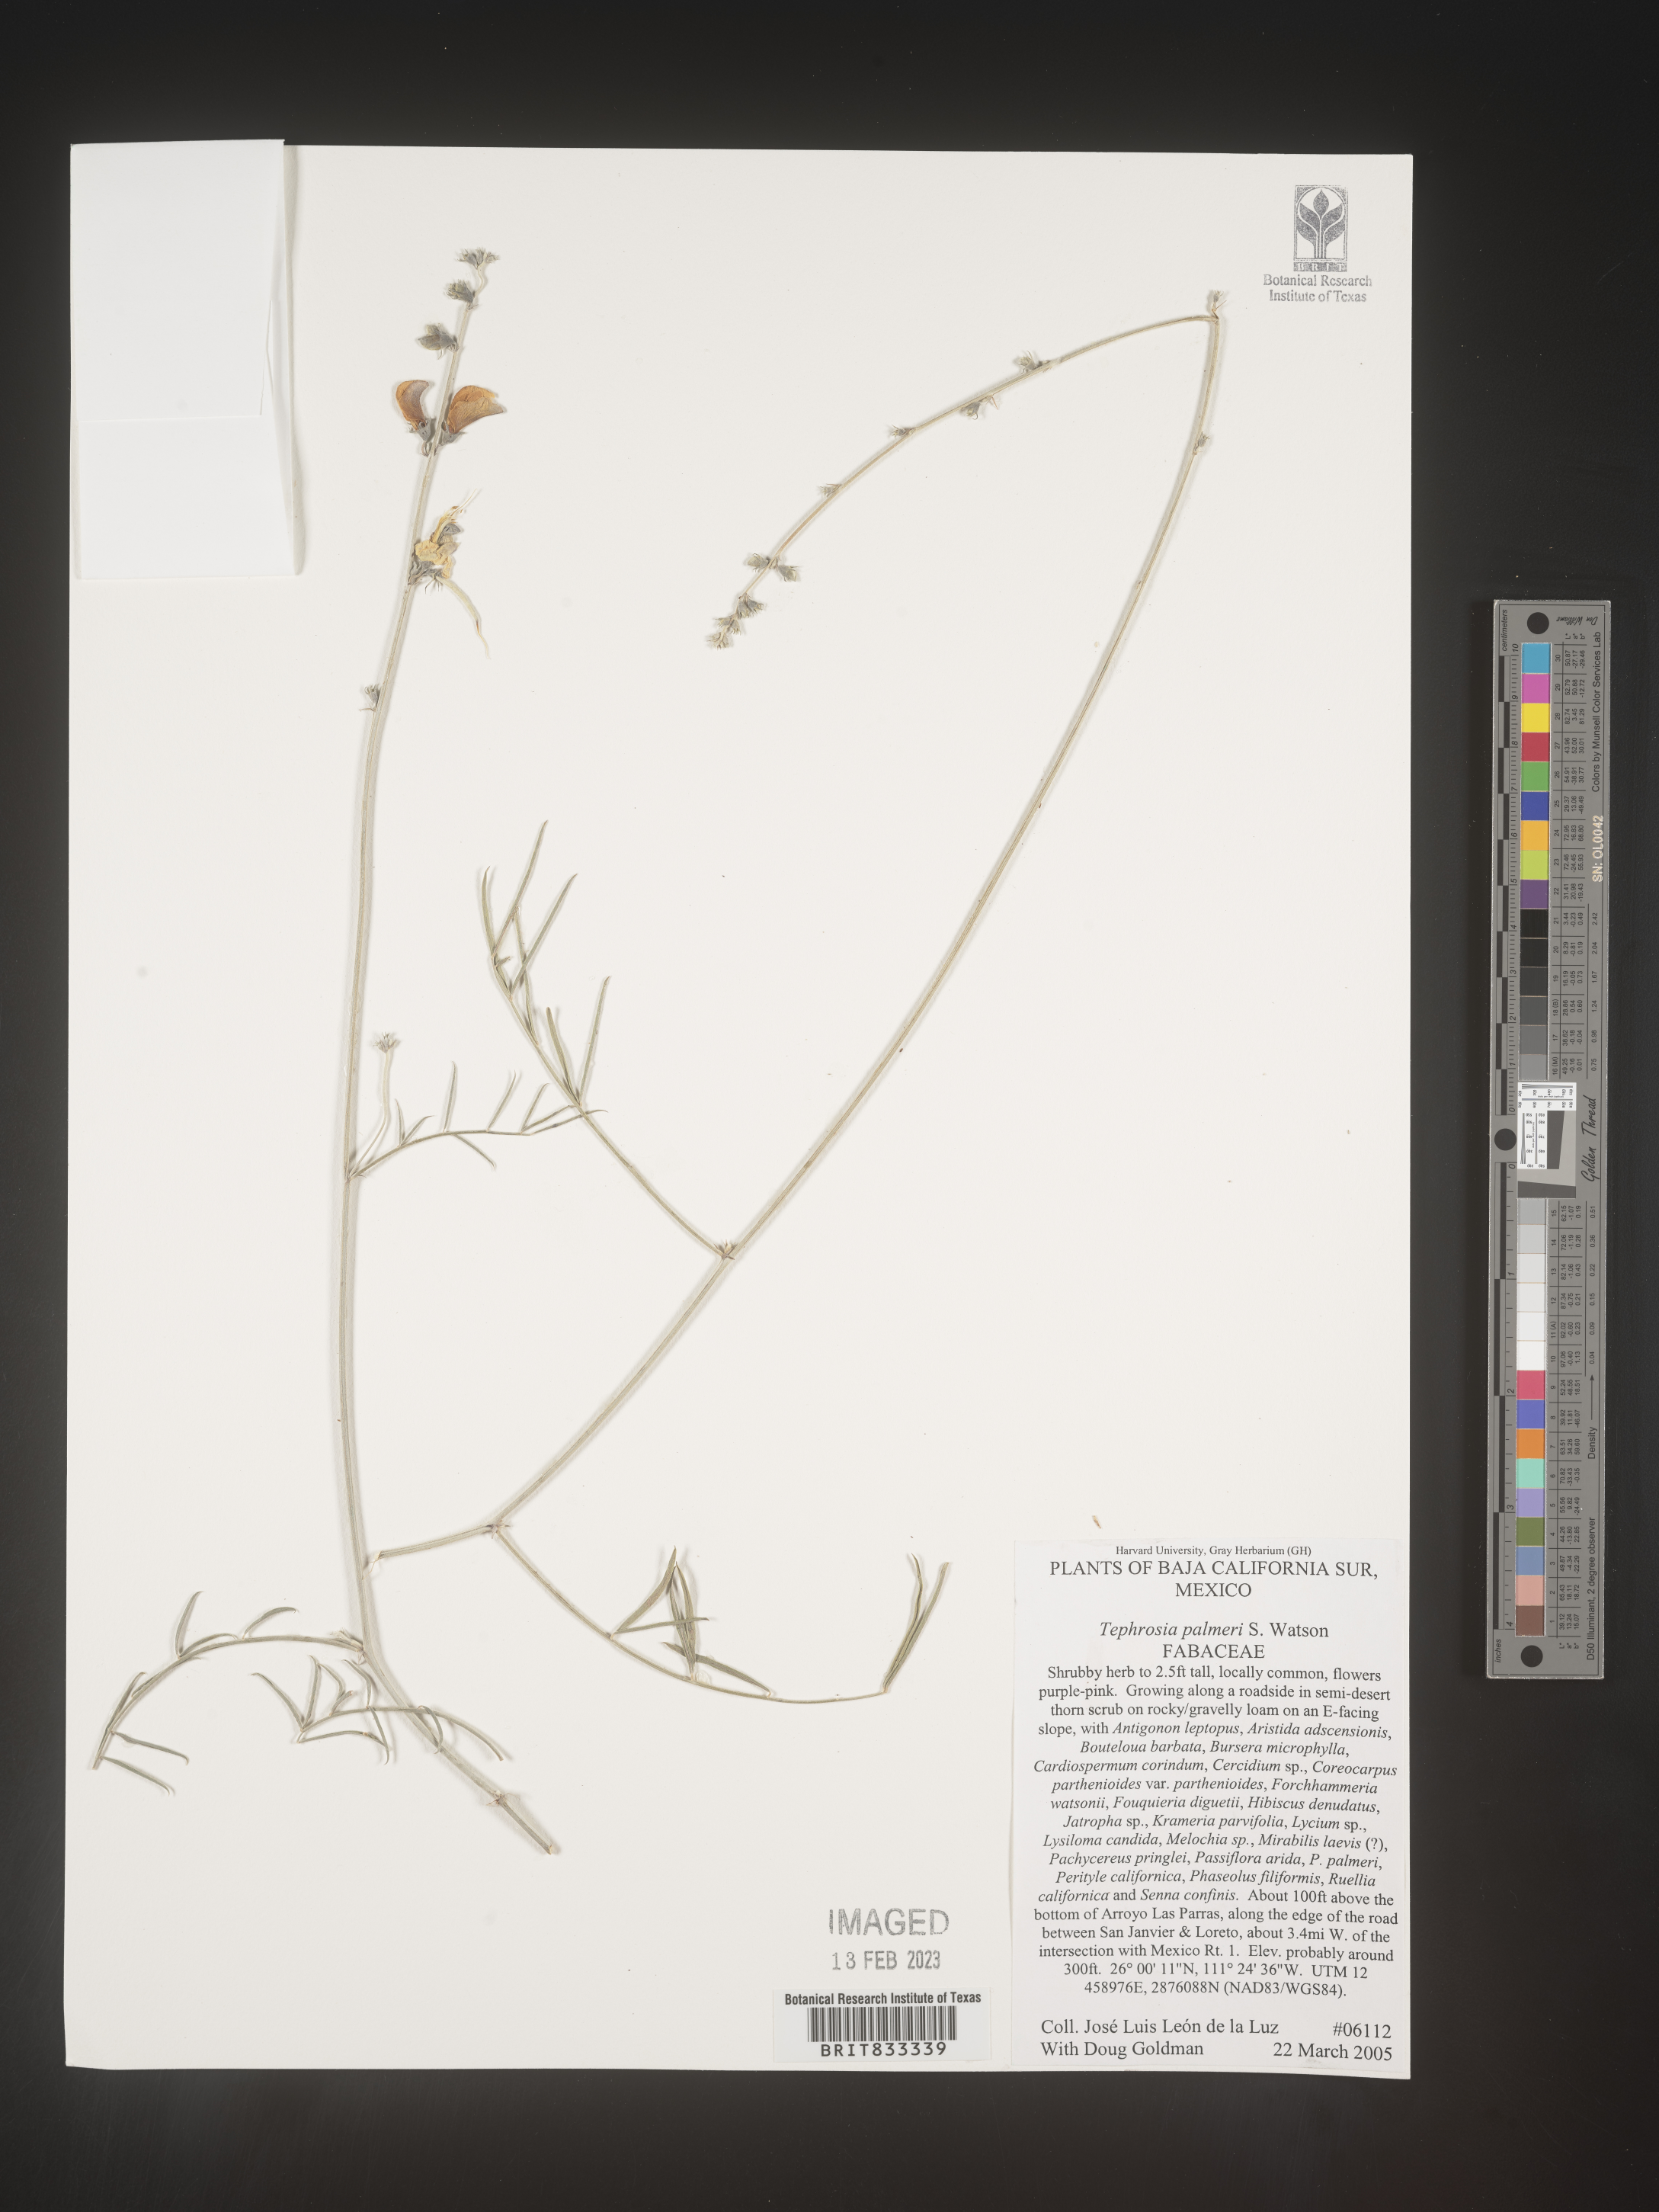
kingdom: Plantae
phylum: Tracheophyta
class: Magnoliopsida
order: Fabales
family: Fabaceae
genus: Tephrosia
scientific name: Tephrosia
